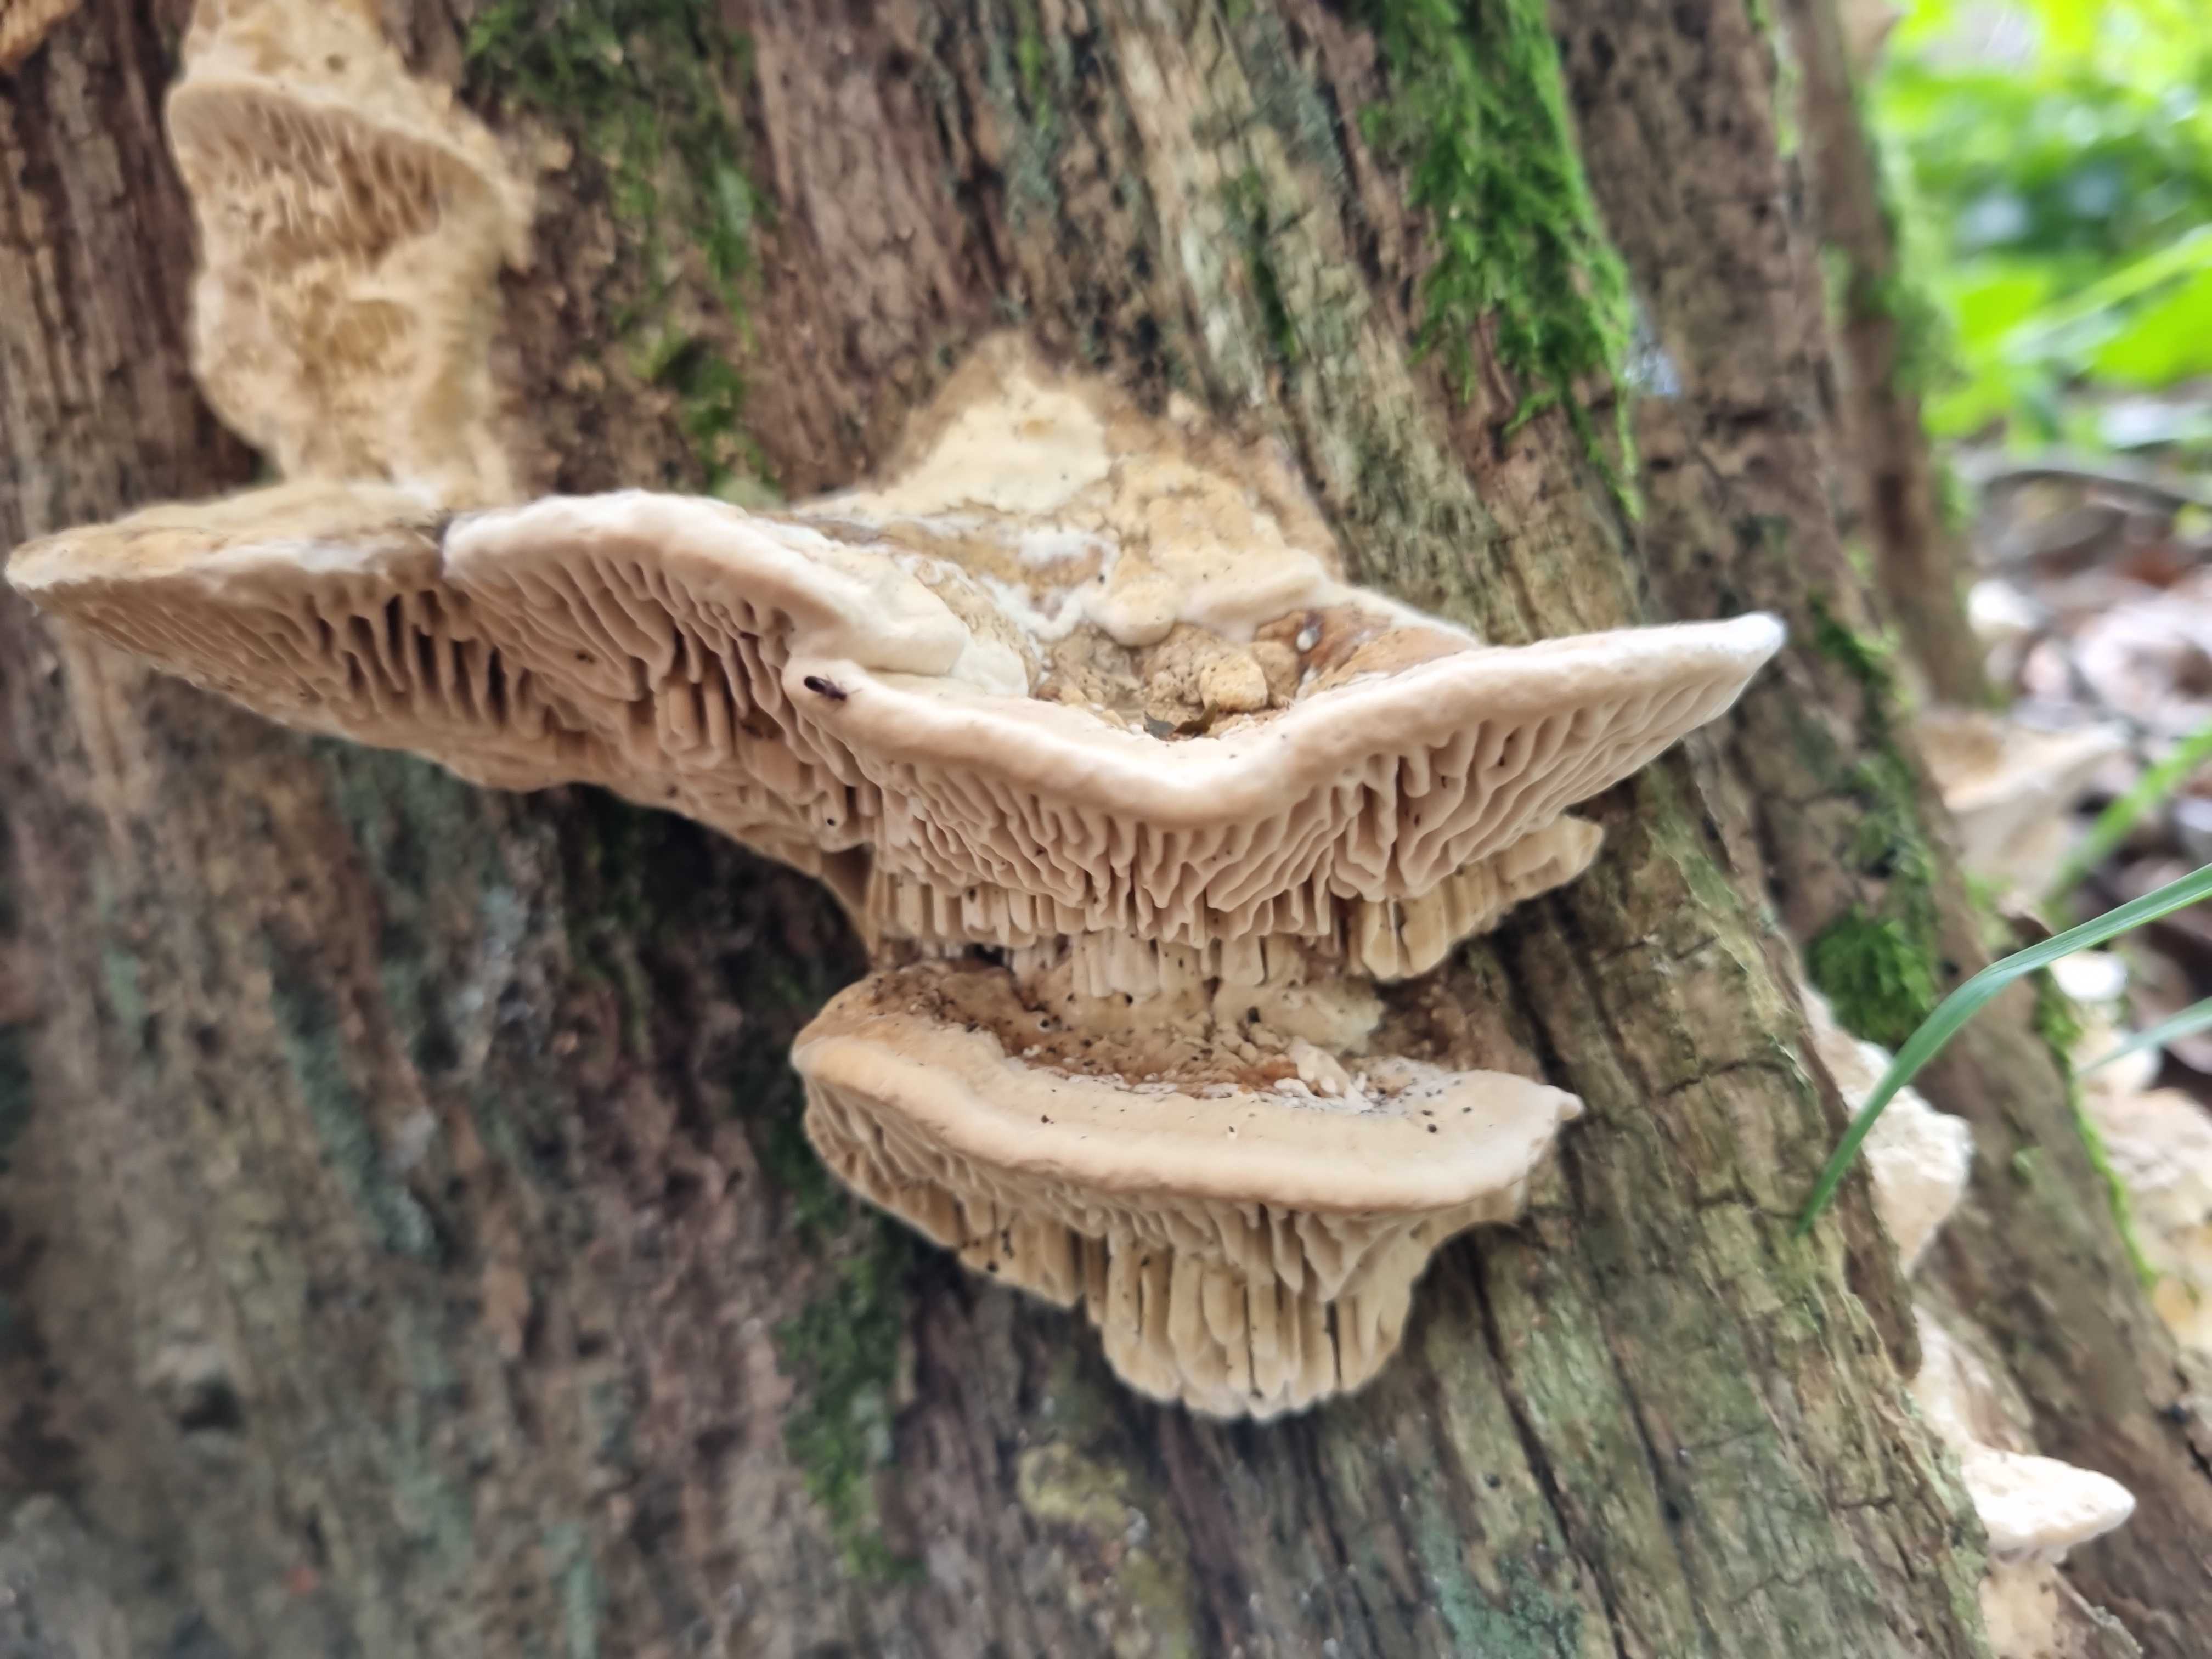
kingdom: Fungi
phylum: Basidiomycota
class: Agaricomycetes
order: Polyporales
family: Fomitopsidaceae
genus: Daedalea
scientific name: Daedalea quercina
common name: ege-labyrintsvamp
